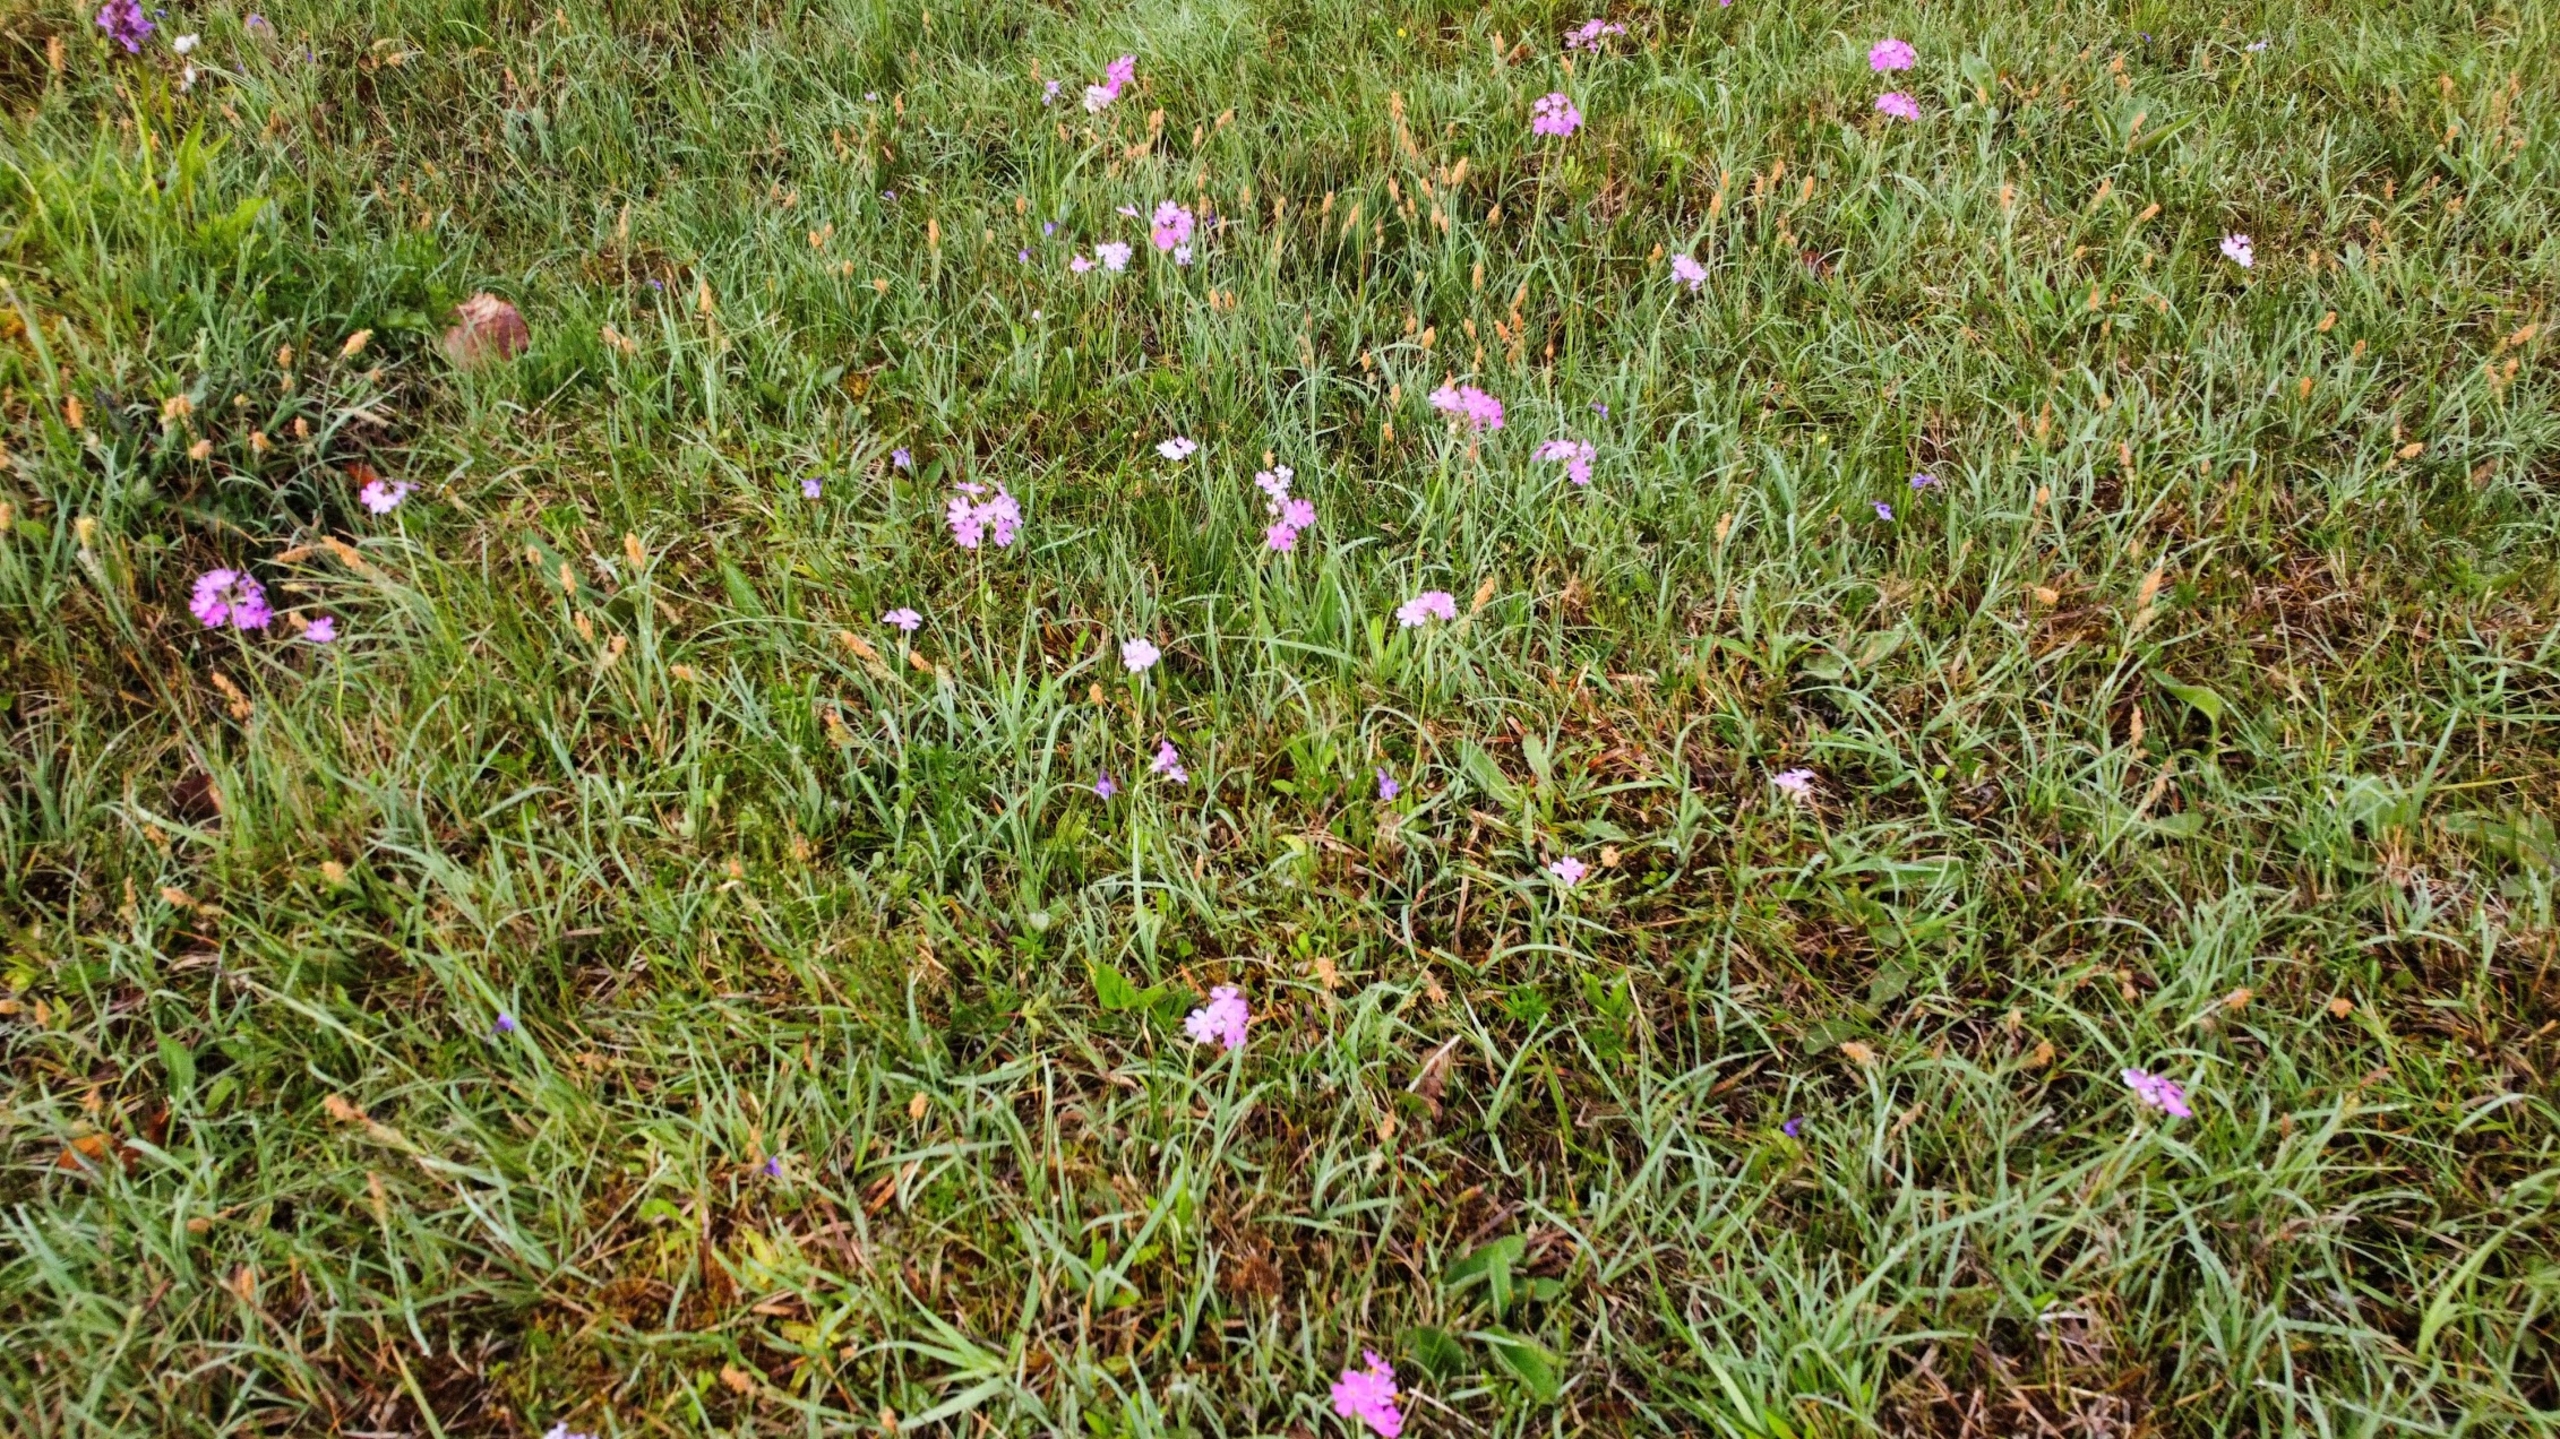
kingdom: Plantae
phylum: Tracheophyta
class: Magnoliopsida
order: Ericales
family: Primulaceae
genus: Primula
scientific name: Primula farinosa
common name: Melet kodriver
